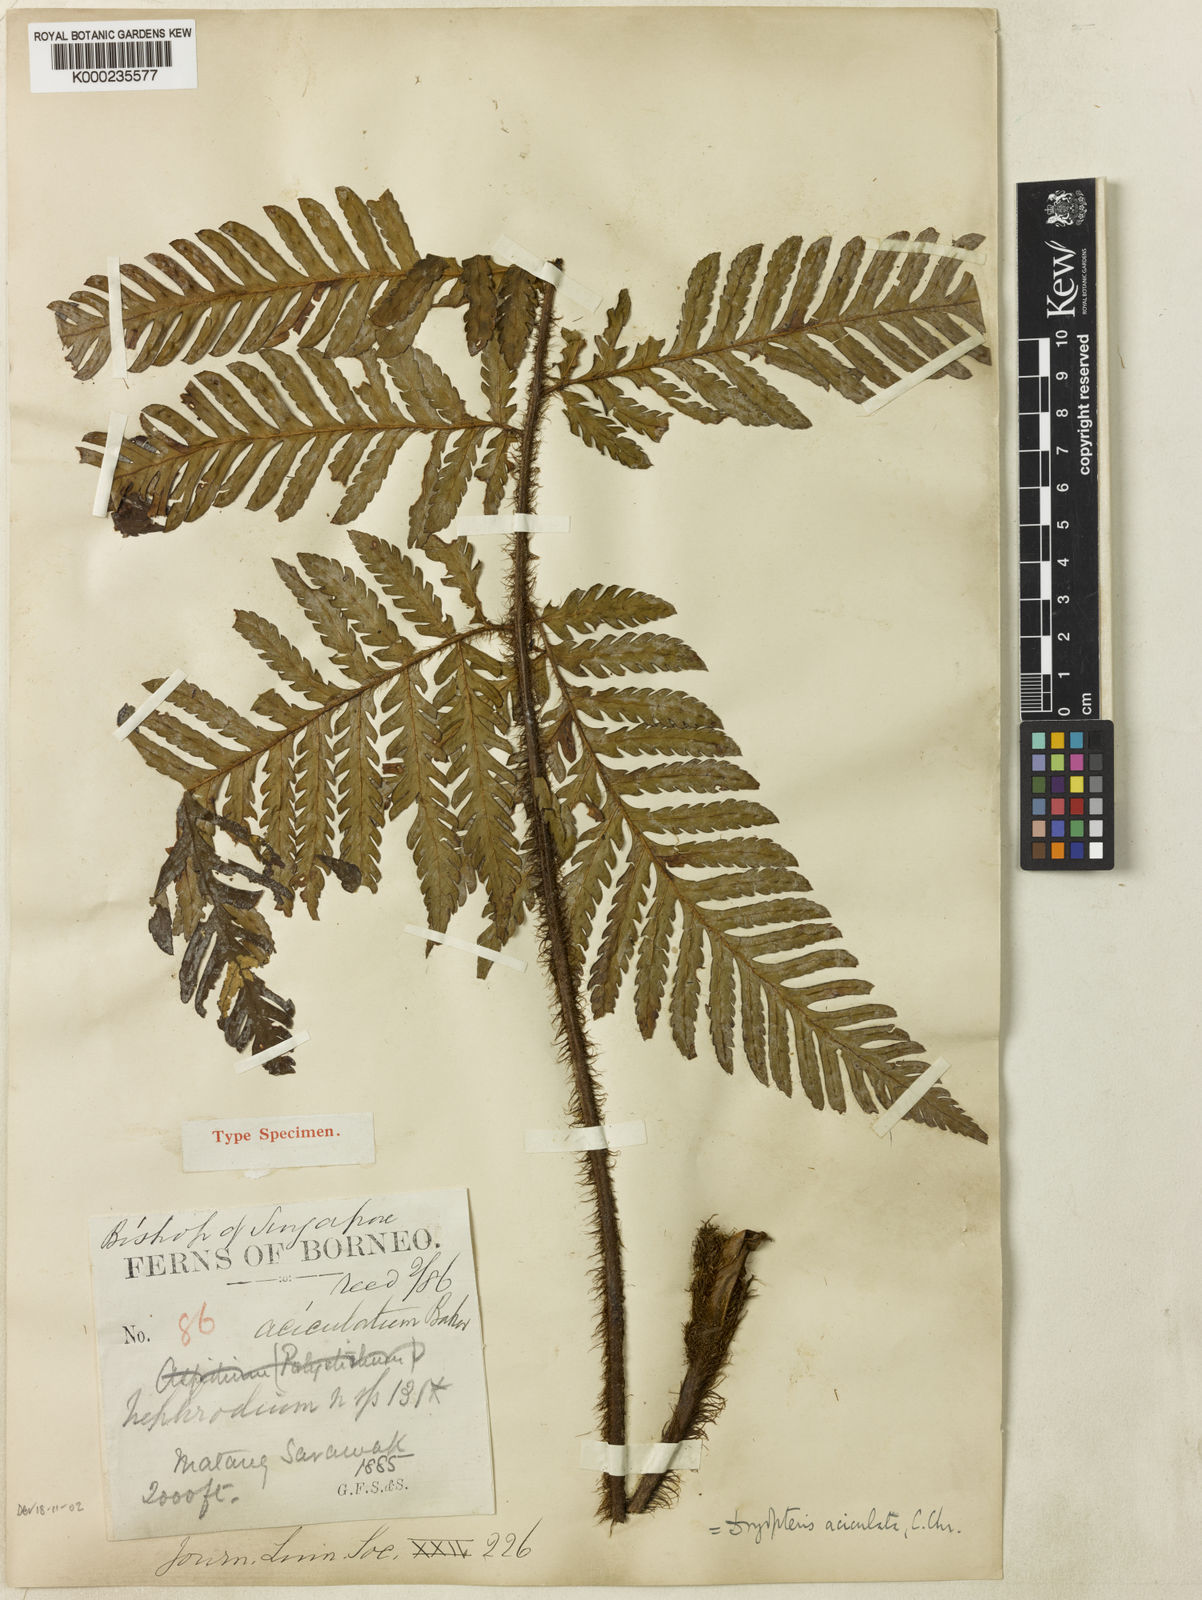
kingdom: Plantae
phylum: Tracheophyta
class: Polypodiopsida
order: Polypodiales
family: Dryopteridaceae
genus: Ctenitis
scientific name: Ctenitis aciculata
